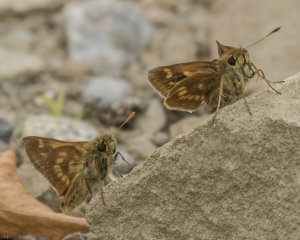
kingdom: Animalia
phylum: Arthropoda
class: Insecta
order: Lepidoptera
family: Hesperiidae
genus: Polites
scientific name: Polites
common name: Long Dash Skipper
